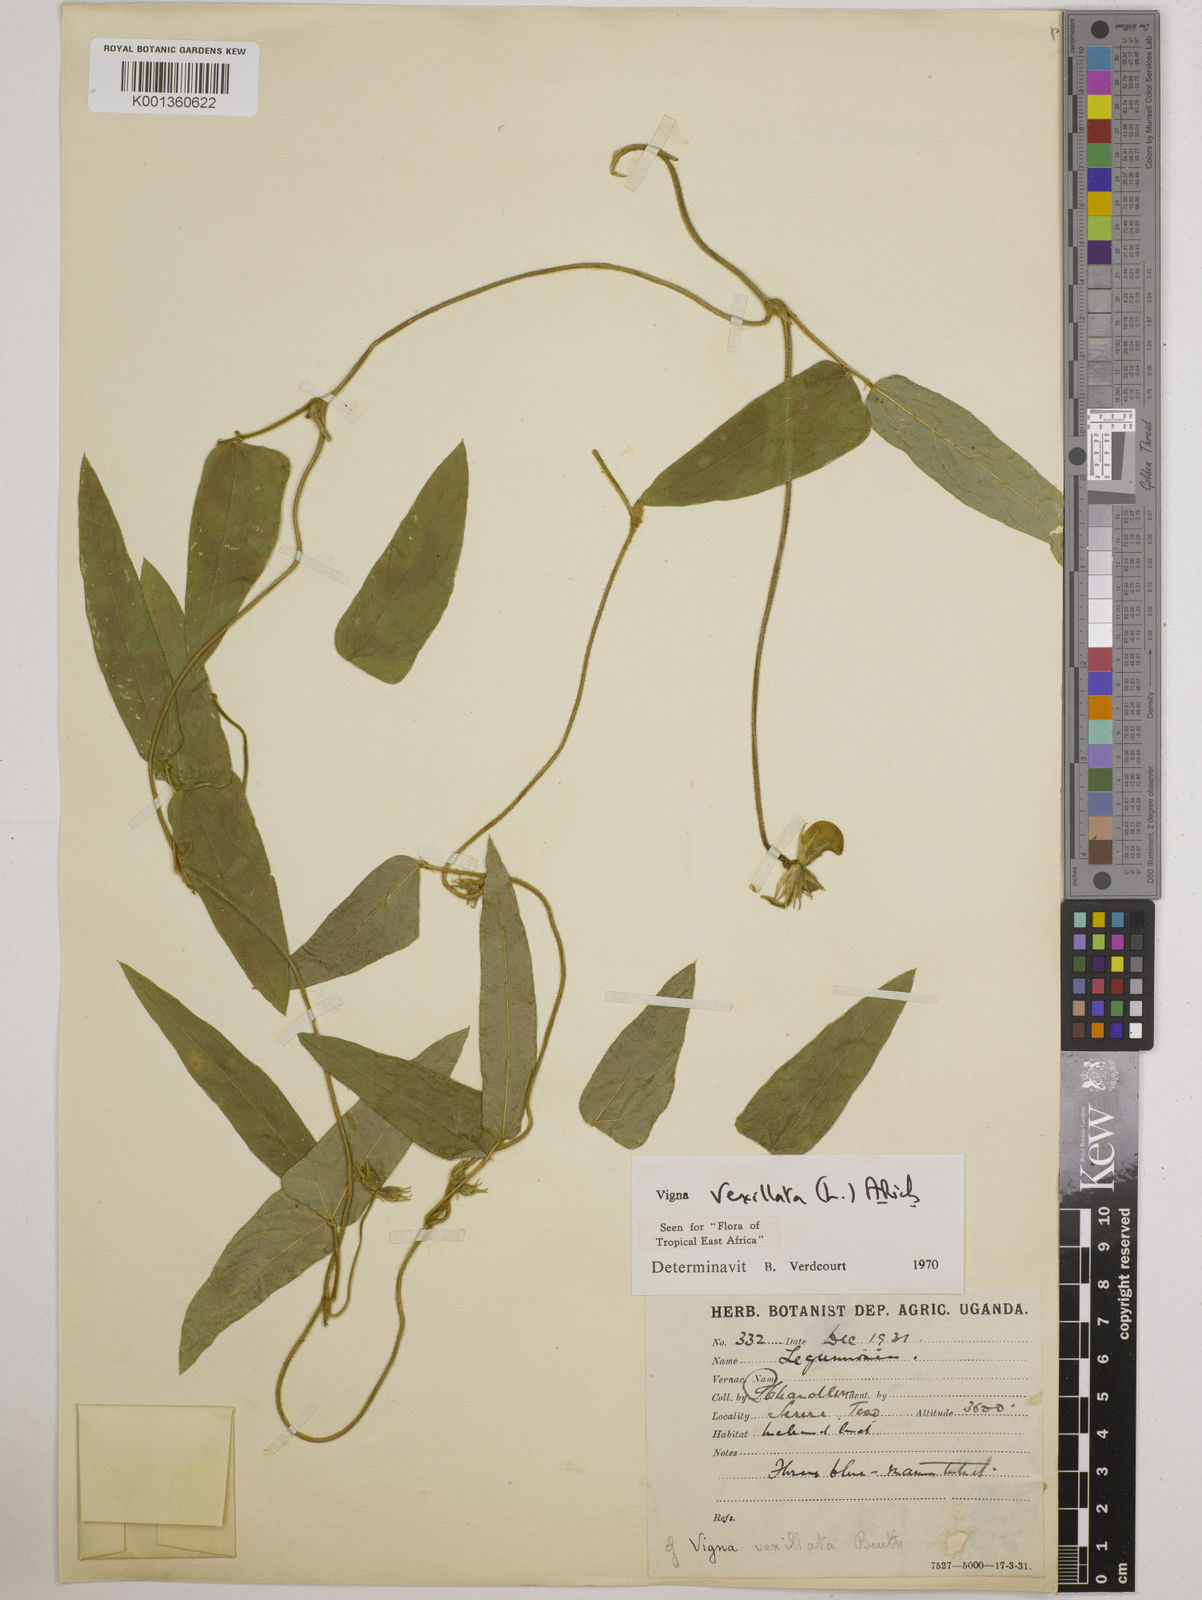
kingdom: Plantae
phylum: Tracheophyta
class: Magnoliopsida
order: Fabales
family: Fabaceae
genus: Vigna
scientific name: Vigna vexillata
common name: Zombi pea
